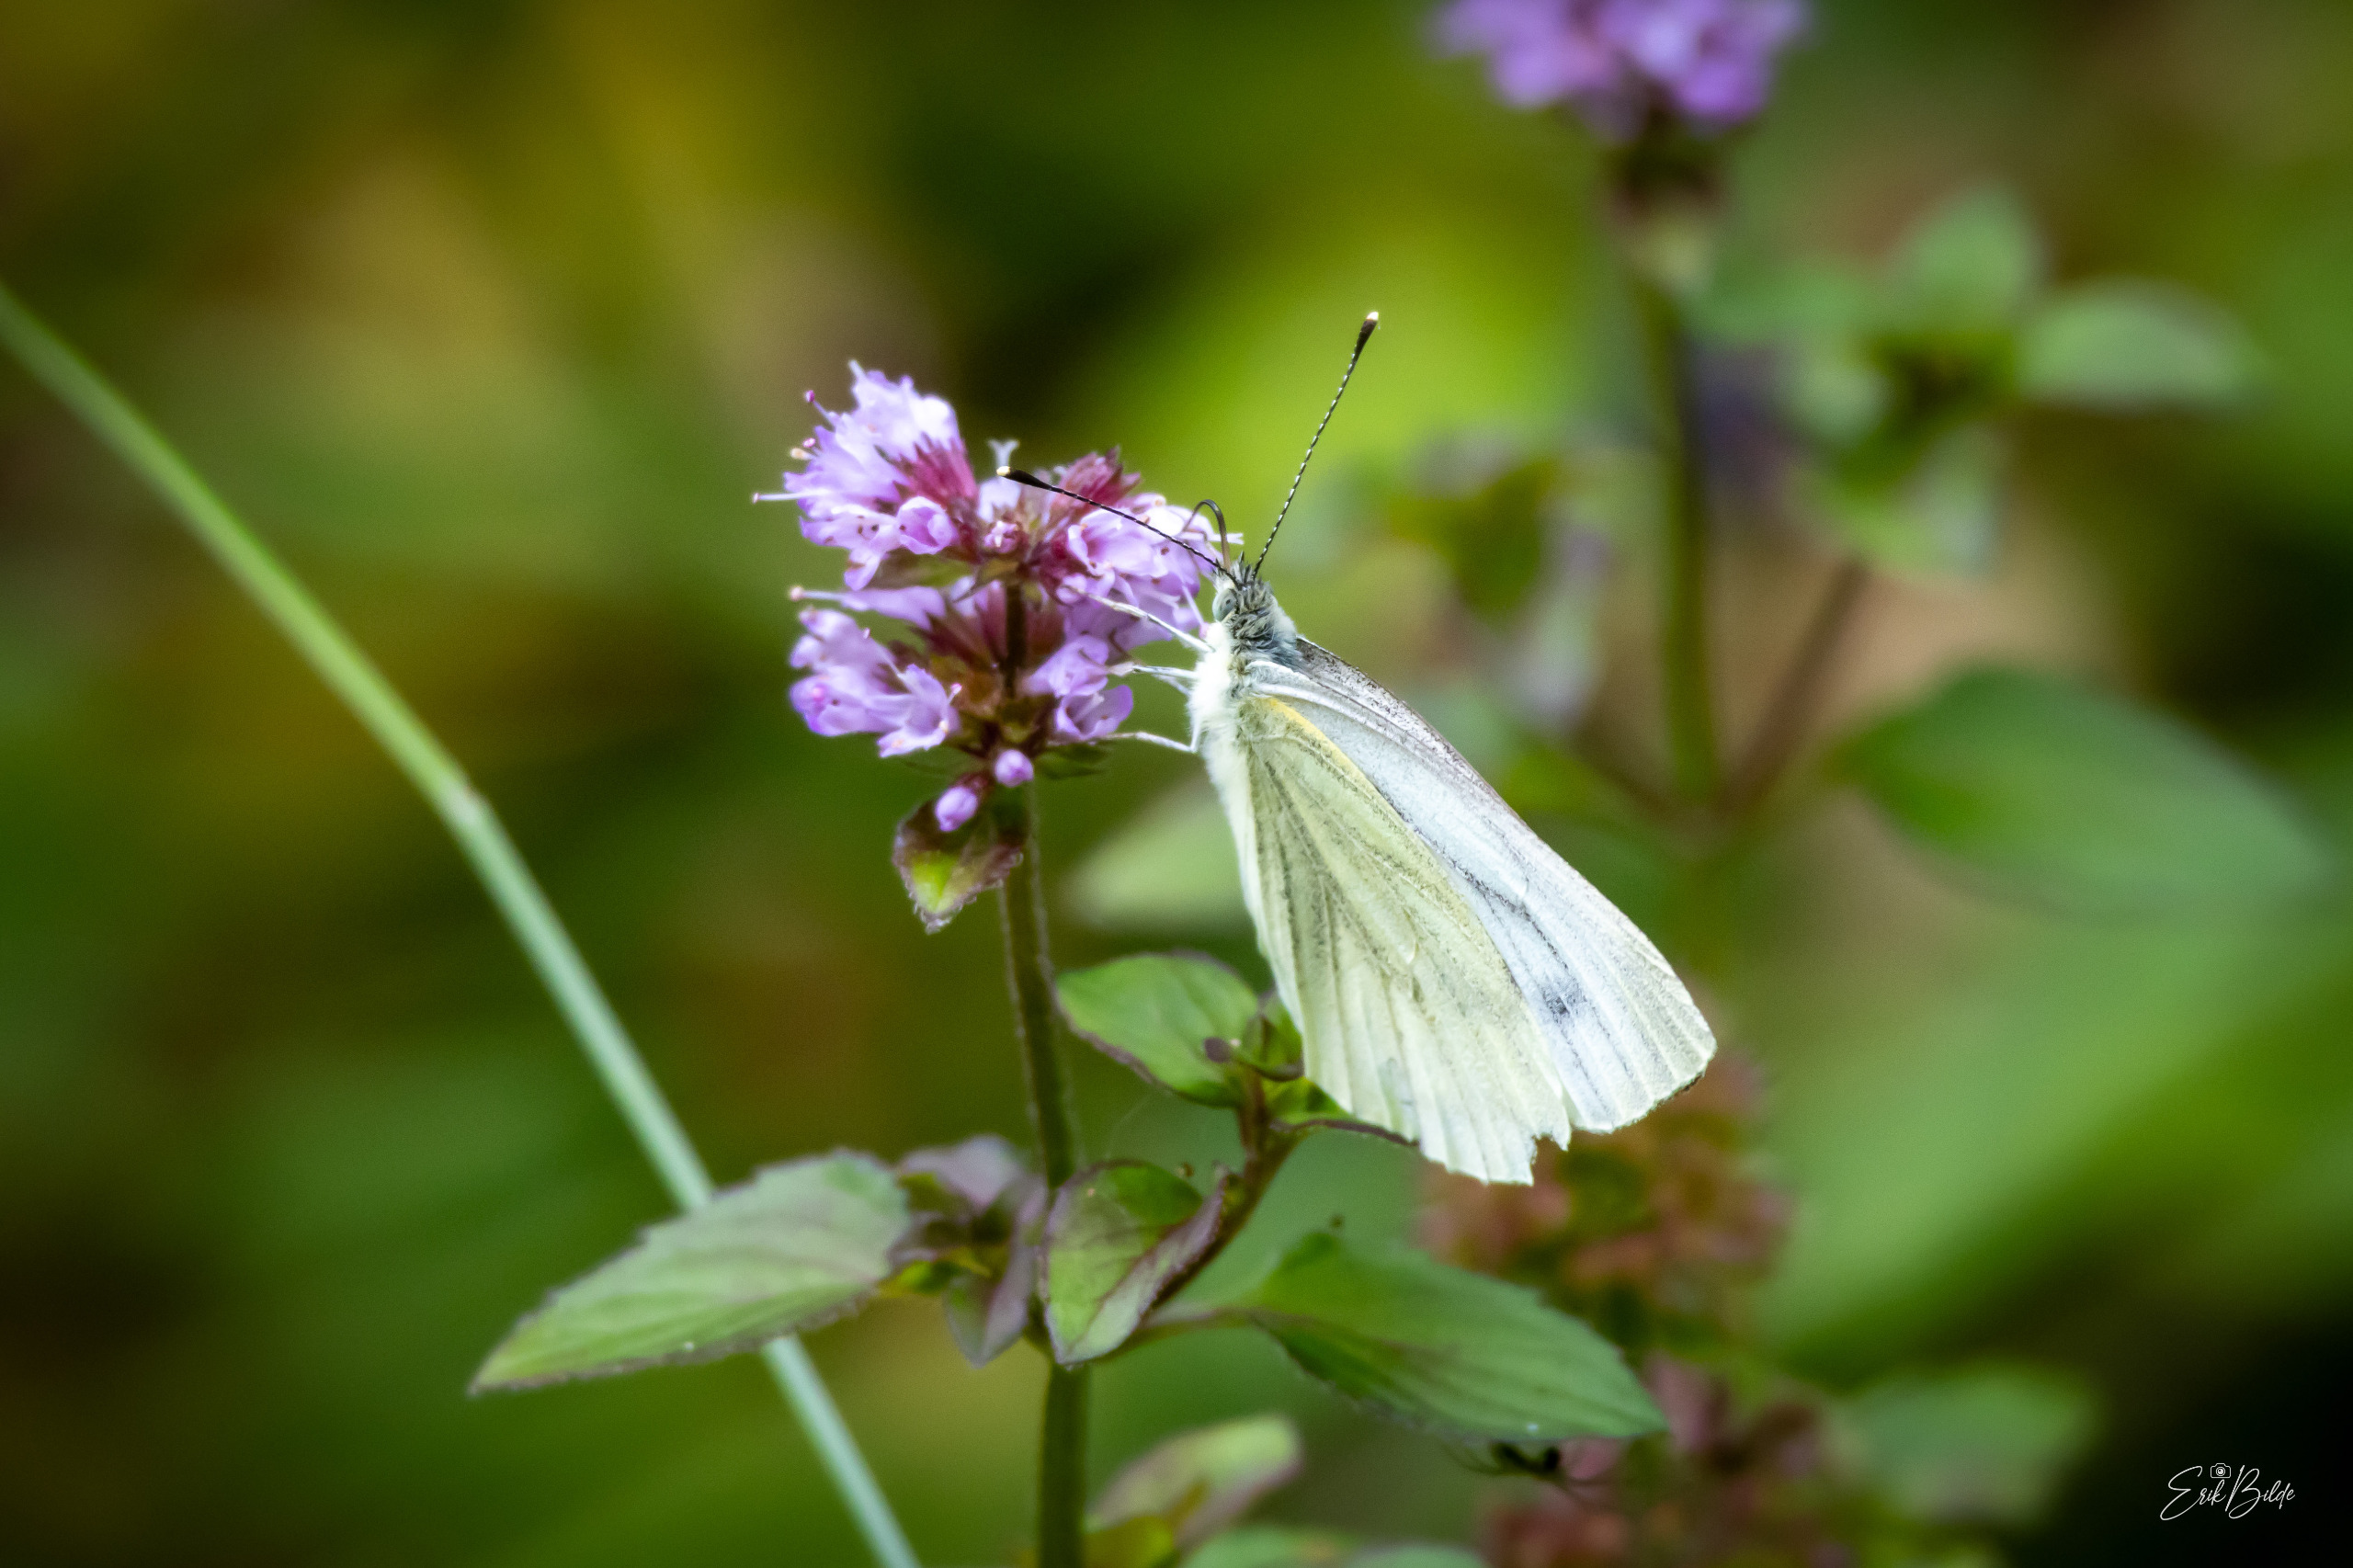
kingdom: Animalia
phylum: Arthropoda
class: Insecta
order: Lepidoptera
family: Pieridae
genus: Pieris
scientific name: Pieris napi
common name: Grønåret kålsommerfugl
